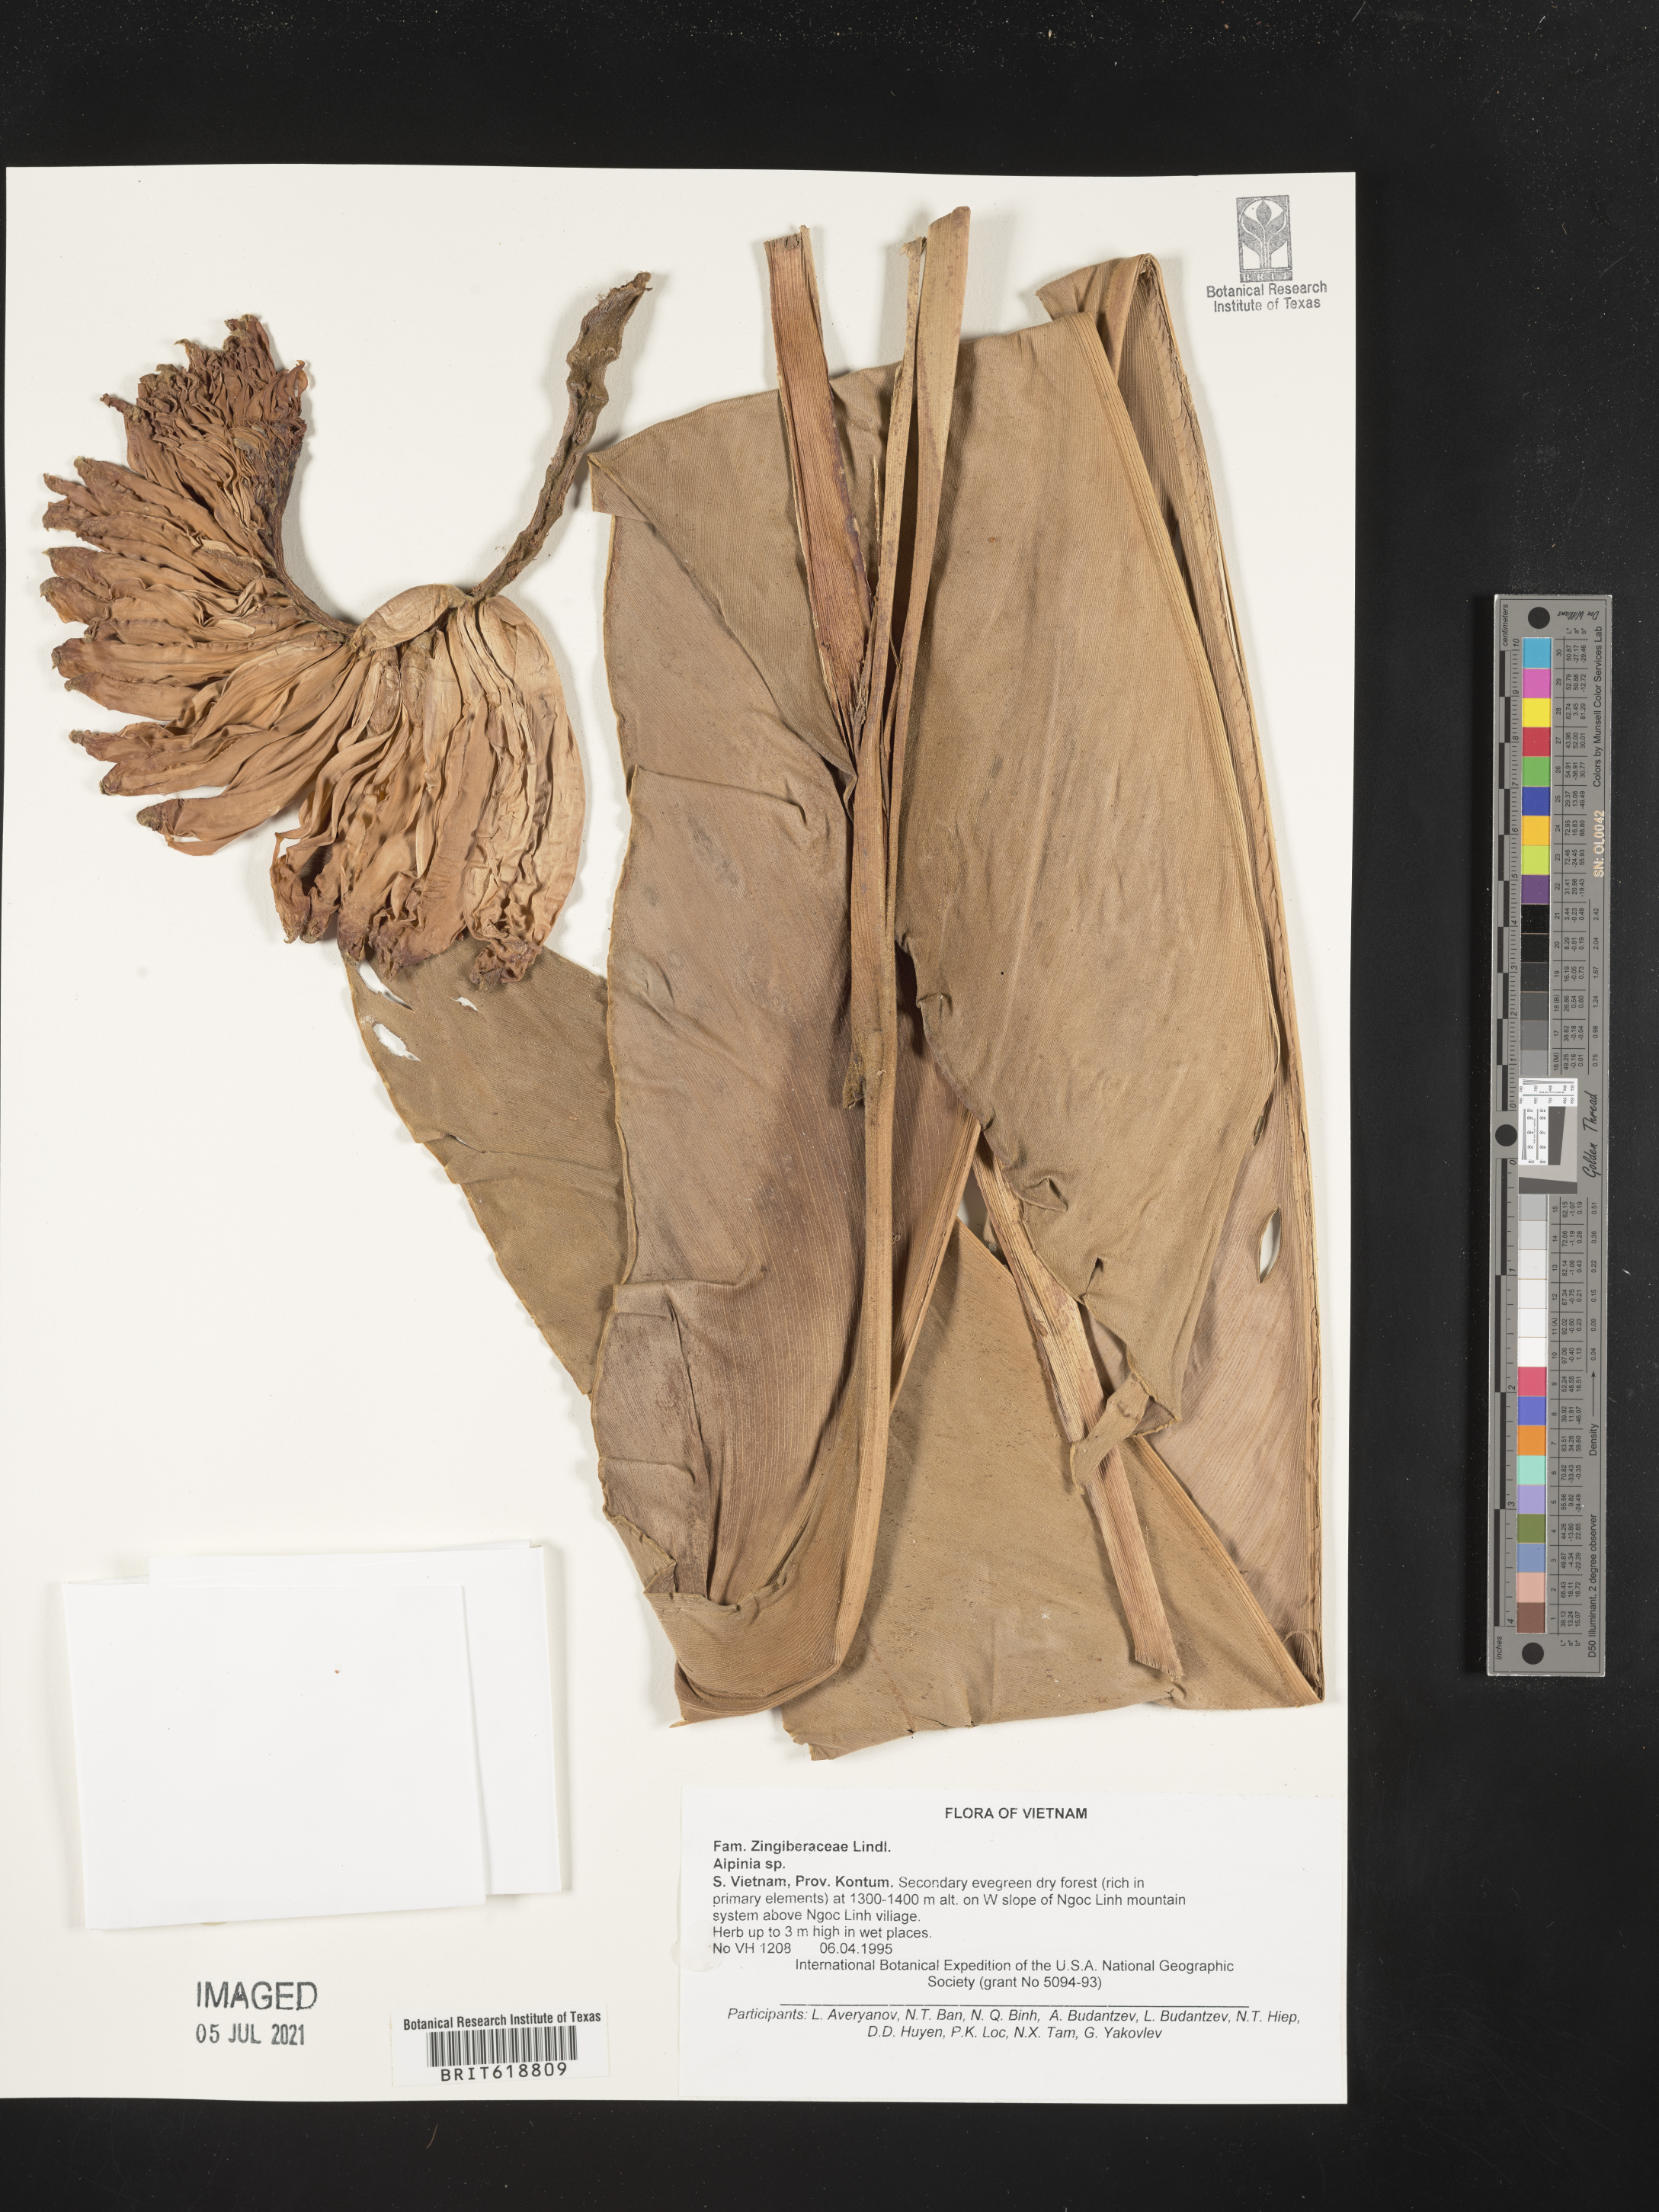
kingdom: Plantae
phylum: Tracheophyta
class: Liliopsida
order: Zingiberales
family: Zingiberaceae
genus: Alpinia
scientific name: Alpinia
